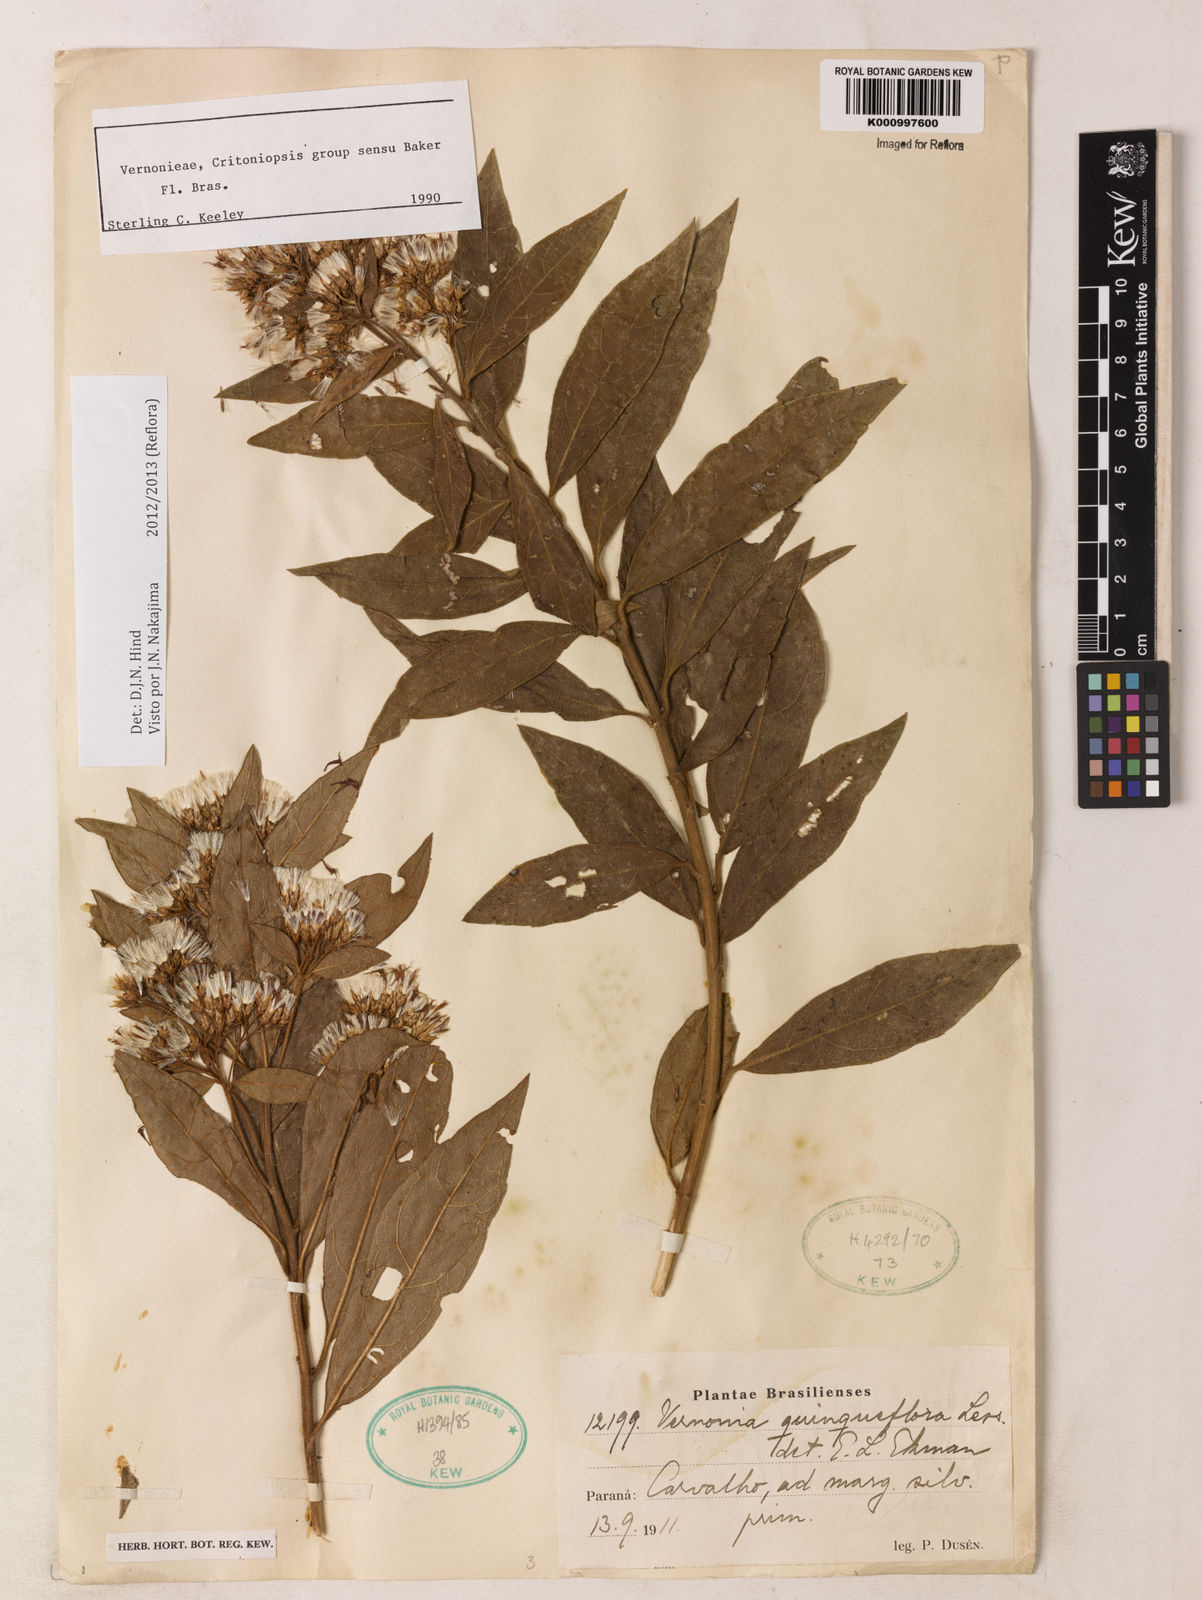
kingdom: Plantae
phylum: Tracheophyta
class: Magnoliopsida
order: Asterales
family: Asteraceae
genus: Critoniopsis
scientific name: Critoniopsis quinqueflora
